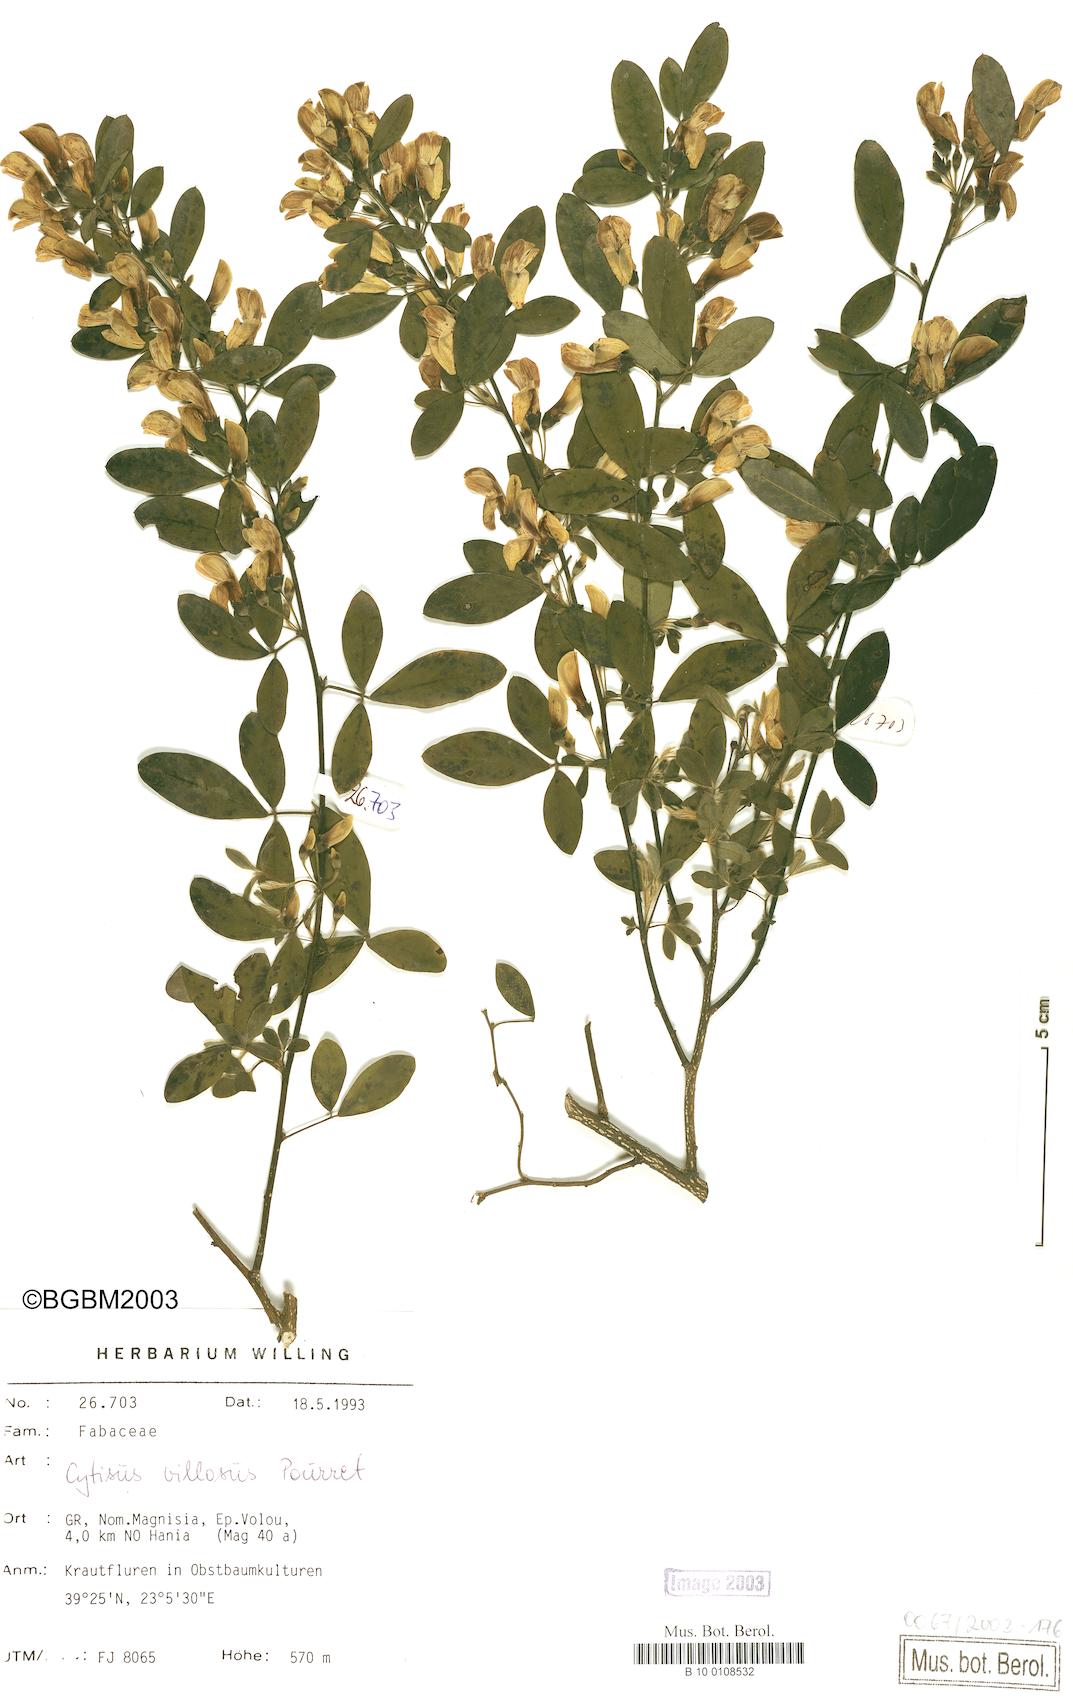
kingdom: Plantae
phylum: Tracheophyta
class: Magnoliopsida
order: Fabales
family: Fabaceae
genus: Cytisus
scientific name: Cytisus villosus
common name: Hairybroom
